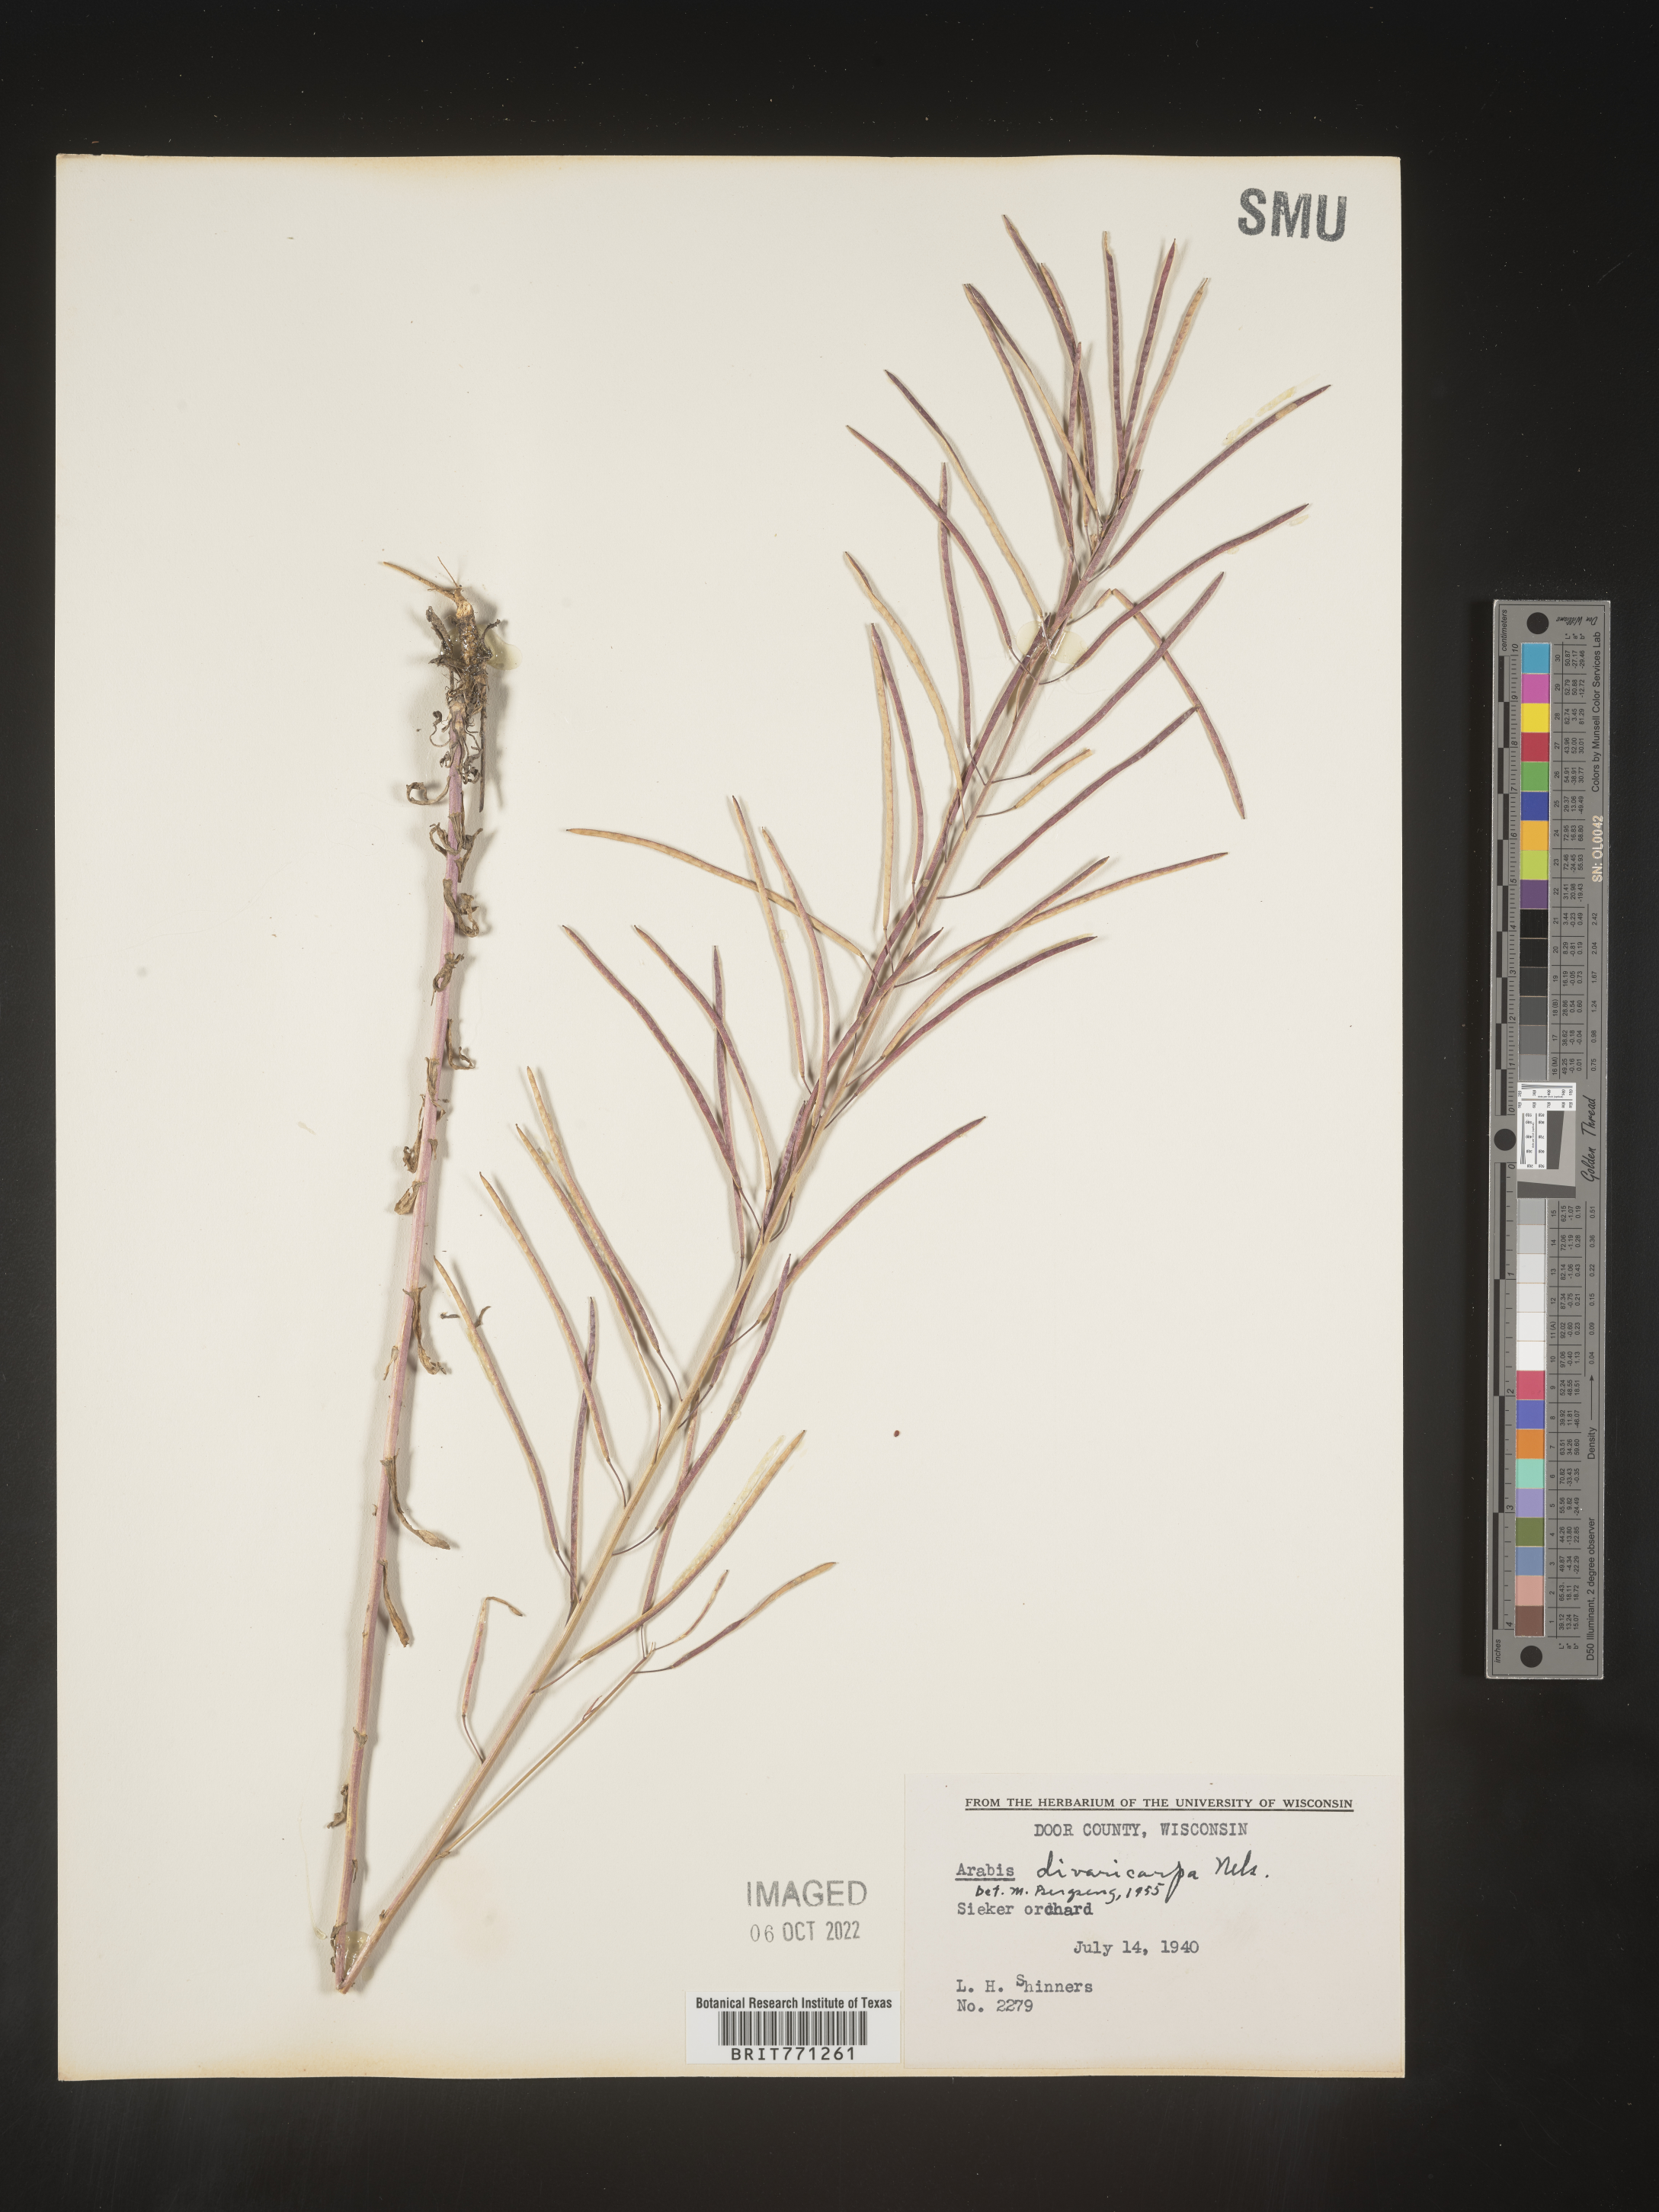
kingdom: Plantae
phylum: Tracheophyta
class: Magnoliopsida
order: Brassicales
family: Brassicaceae
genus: Boechera
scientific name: Boechera divaricarpa
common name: Divaricate rockcress
